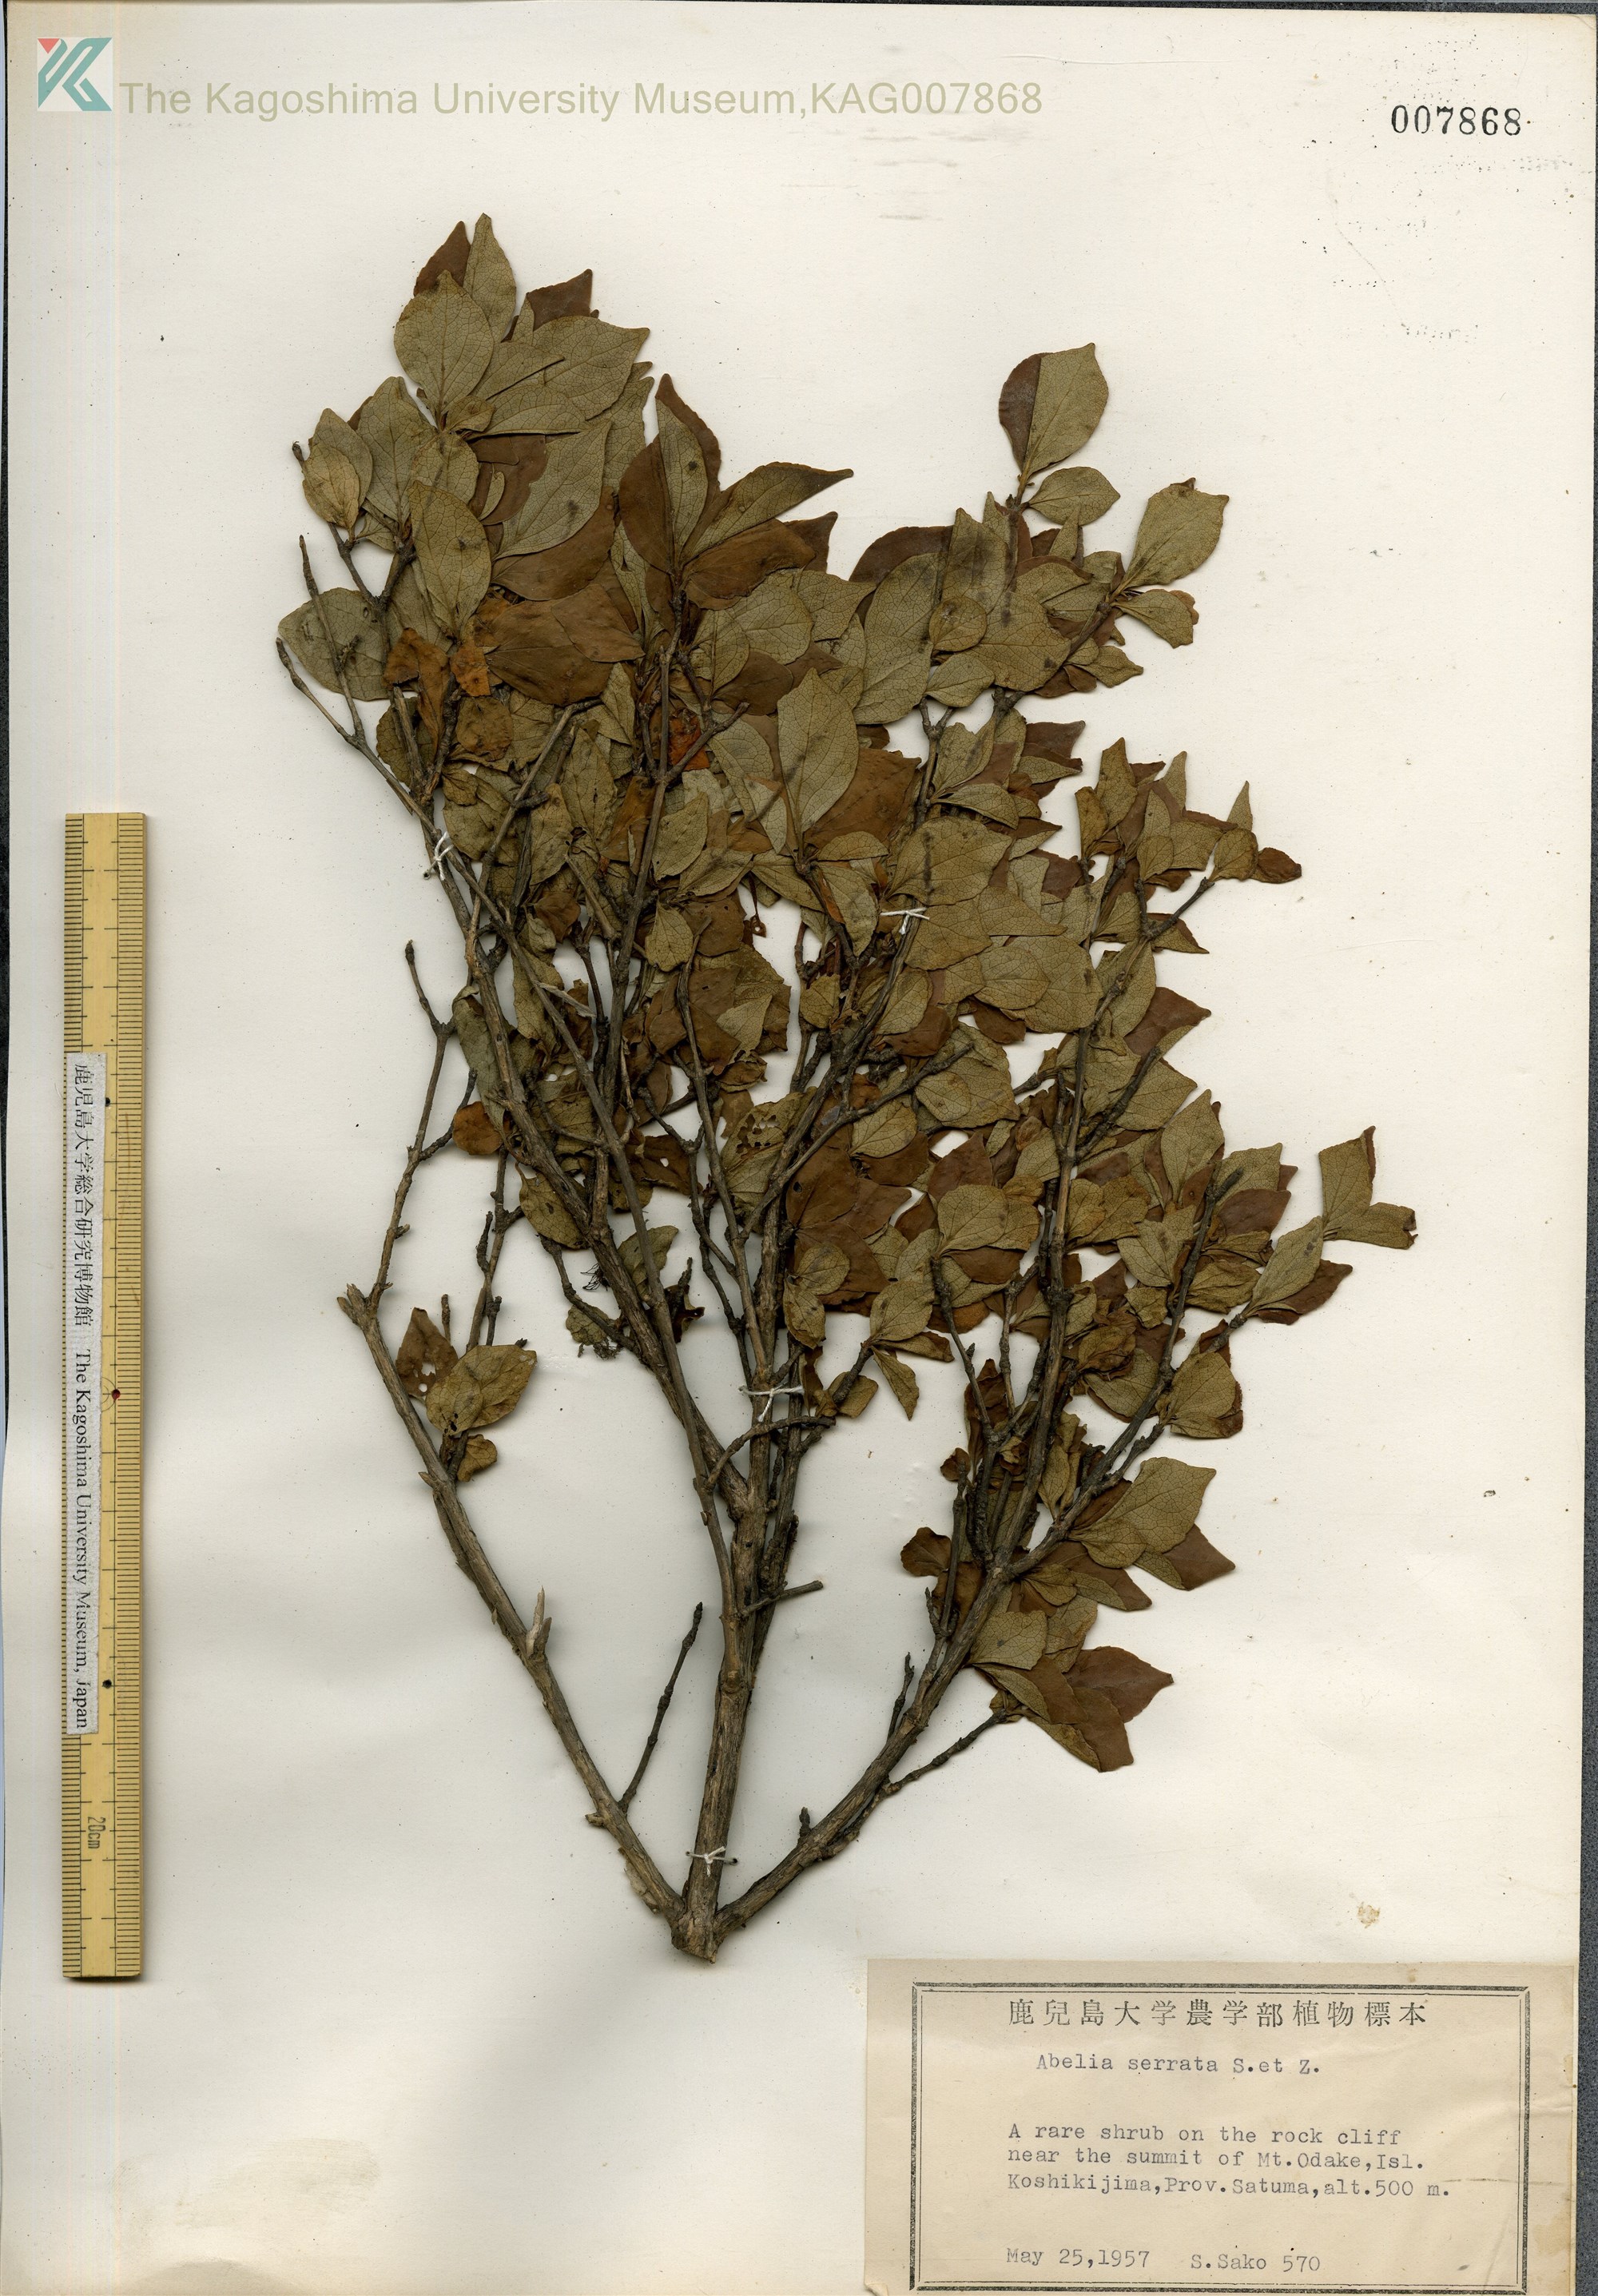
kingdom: Plantae
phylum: Tracheophyta
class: Magnoliopsida
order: Dipsacales
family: Caprifoliaceae
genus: Diabelia
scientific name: Diabelia serrata
